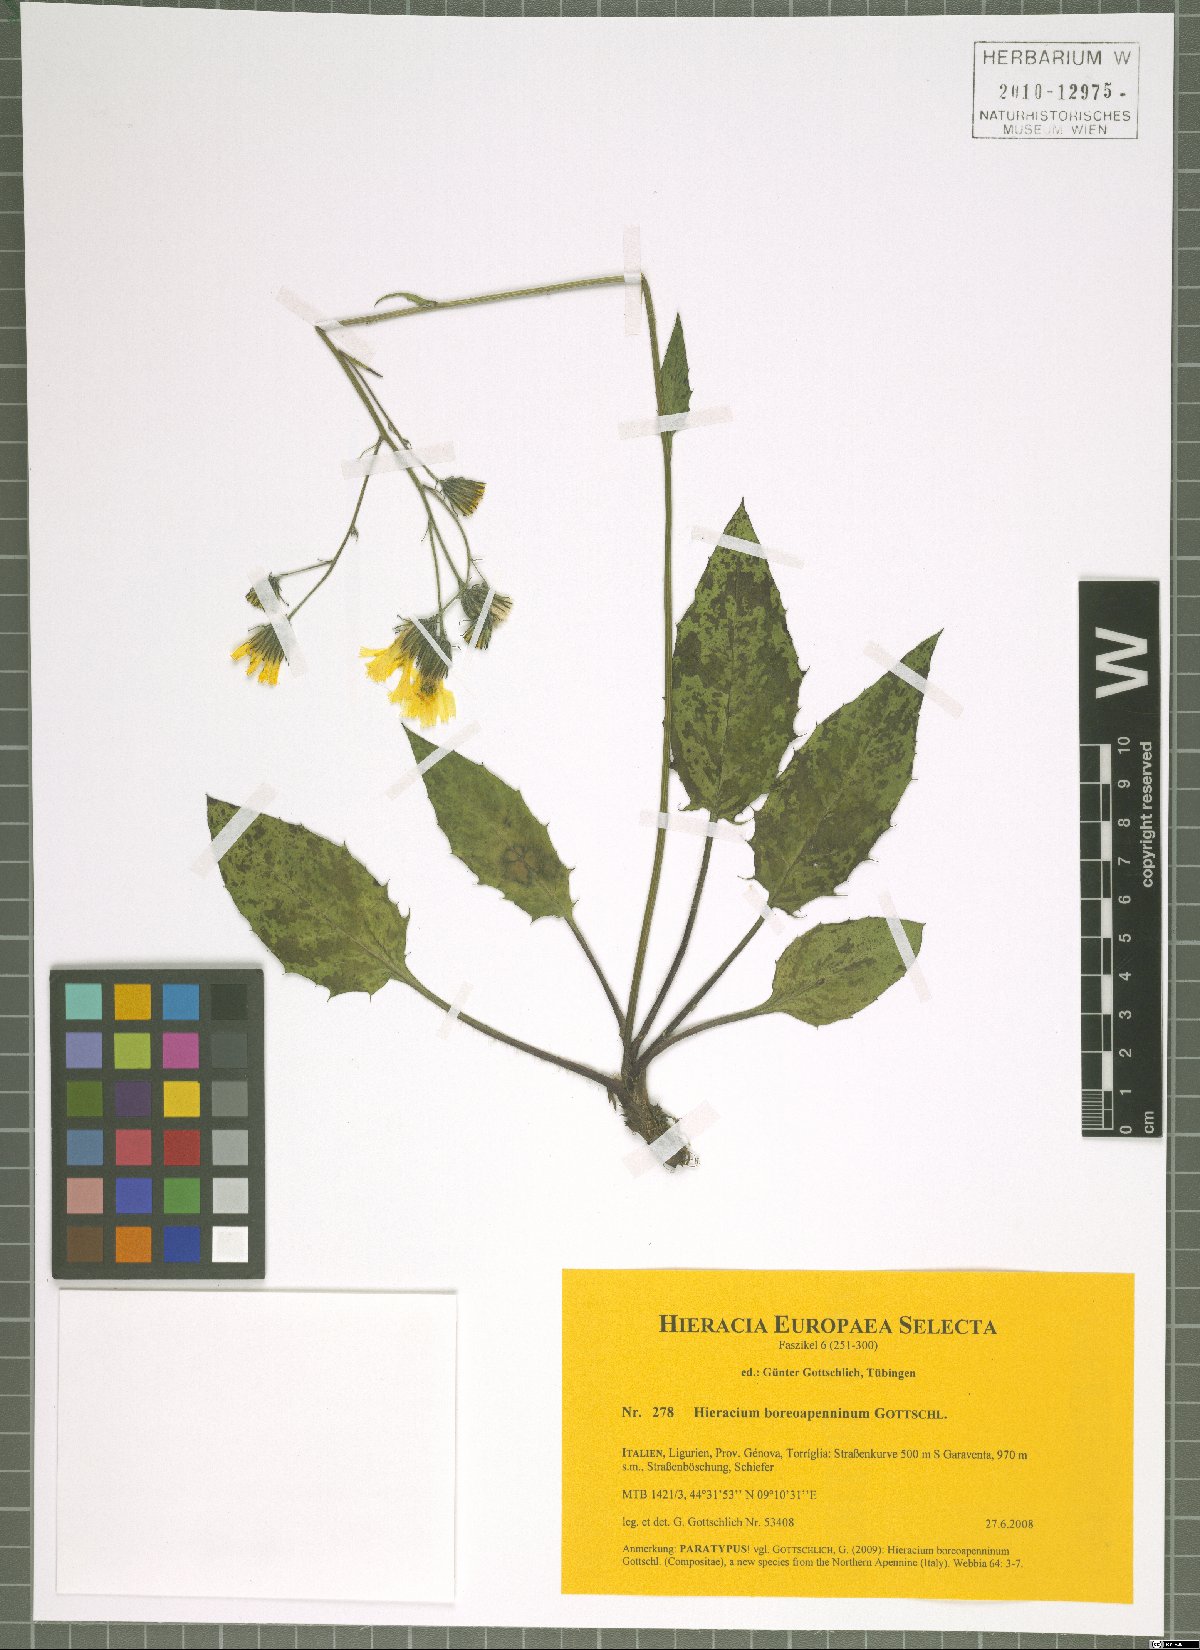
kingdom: Plantae
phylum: Tracheophyta
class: Magnoliopsida
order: Asterales
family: Asteraceae
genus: Hieracium
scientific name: Hieracium boreoapenninum
